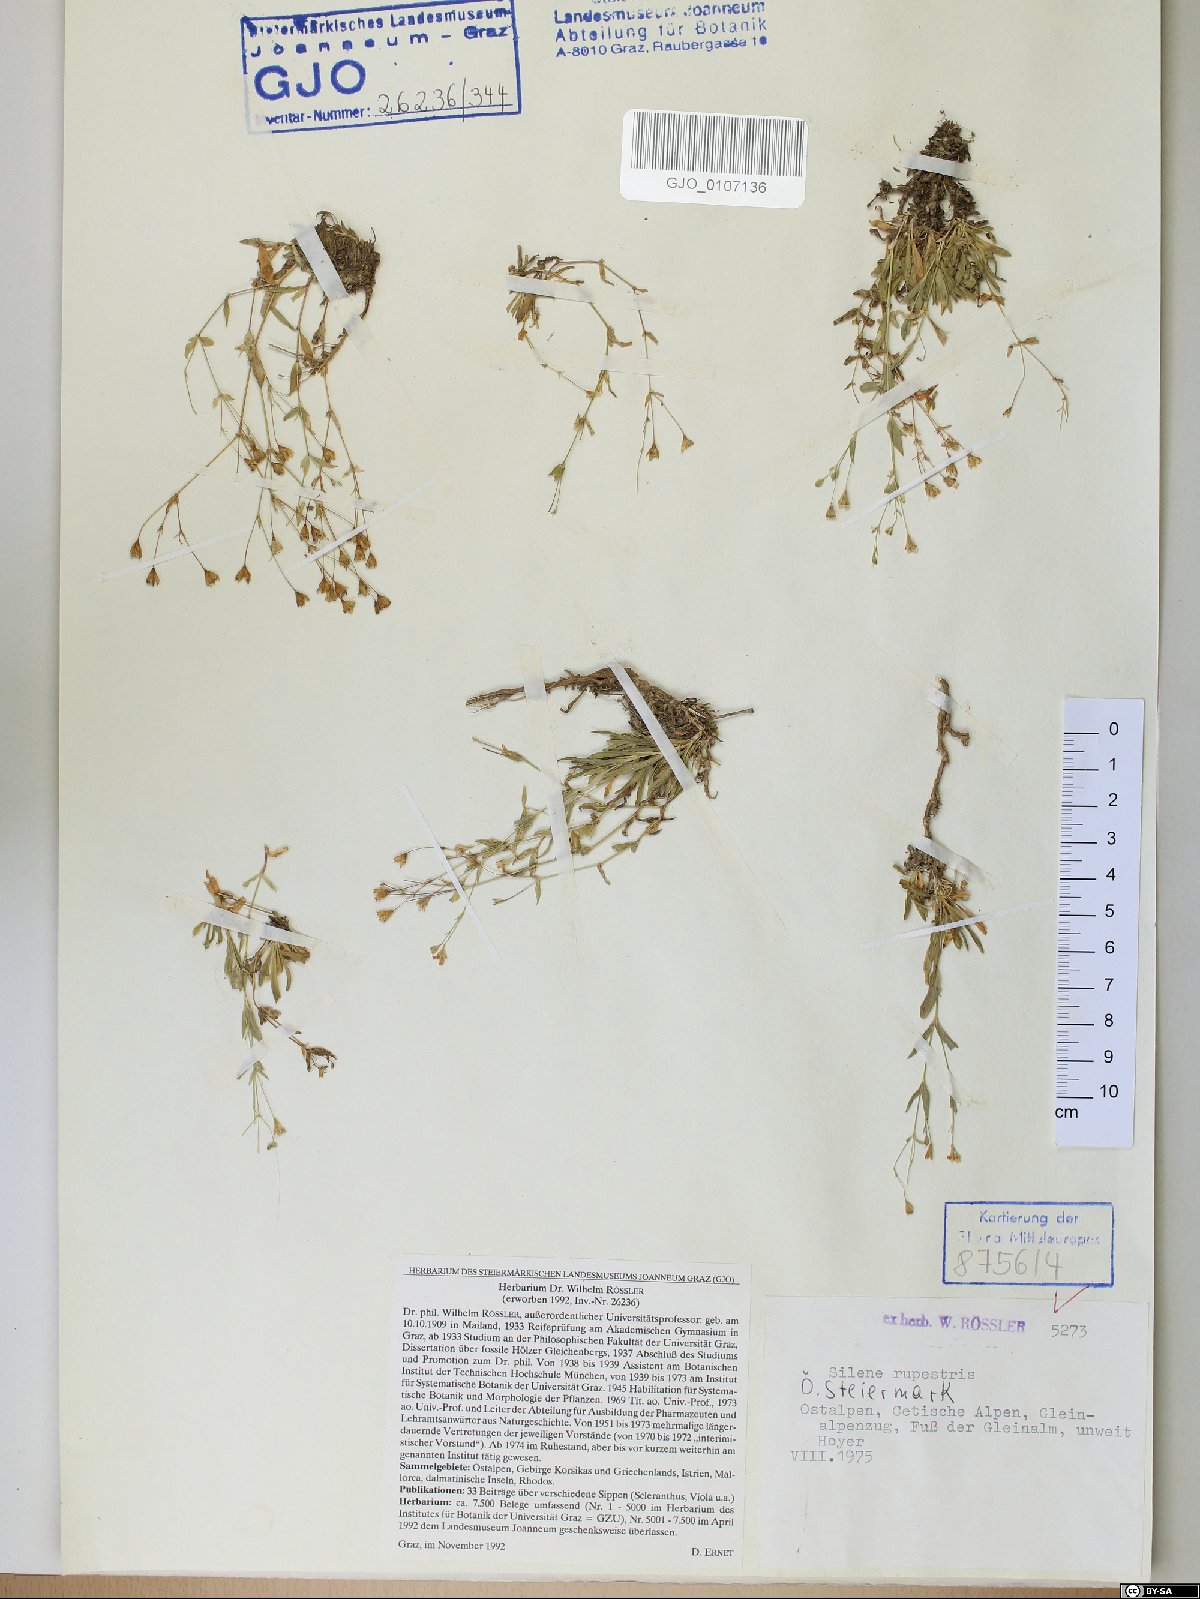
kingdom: Plantae
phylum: Tracheophyta
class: Magnoliopsida
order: Caryophyllales
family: Caryophyllaceae
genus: Atocion
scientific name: Atocion rupestre
